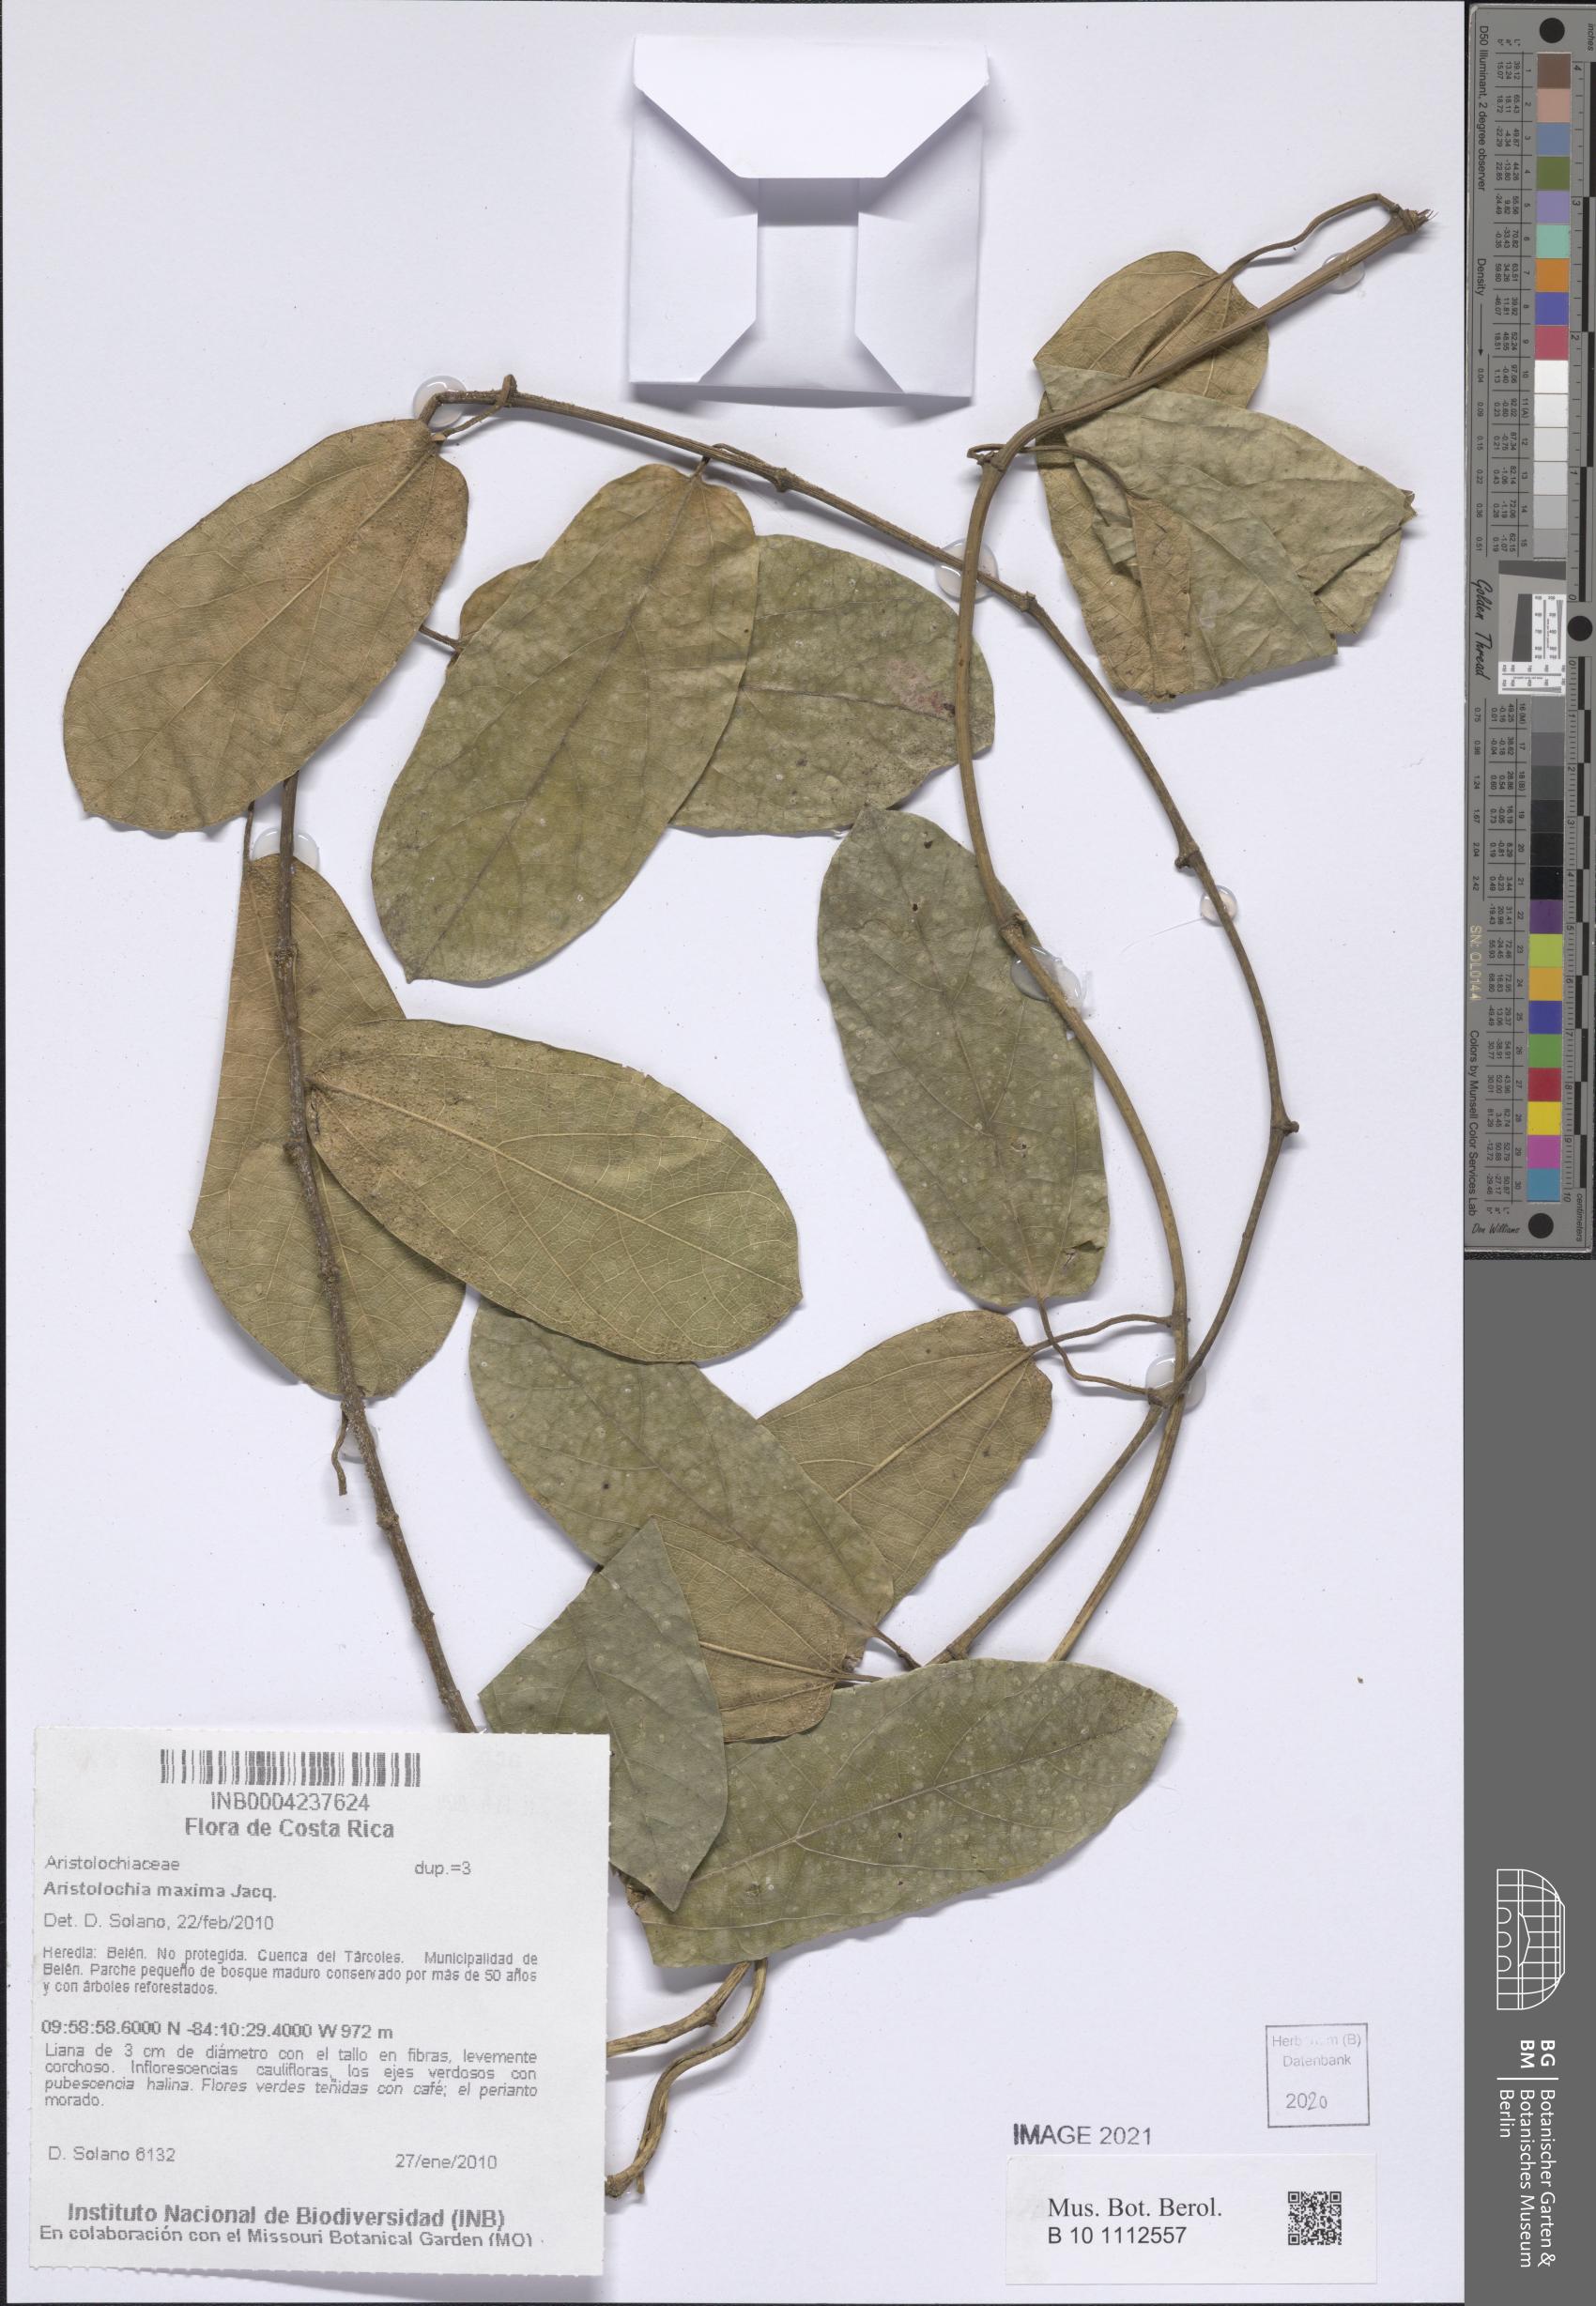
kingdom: Plantae
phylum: Tracheophyta
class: Magnoliopsida
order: Piperales
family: Aristolochiaceae
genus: Aristolochia
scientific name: Aristolochia maxima
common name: Florida dutchman's pipe
